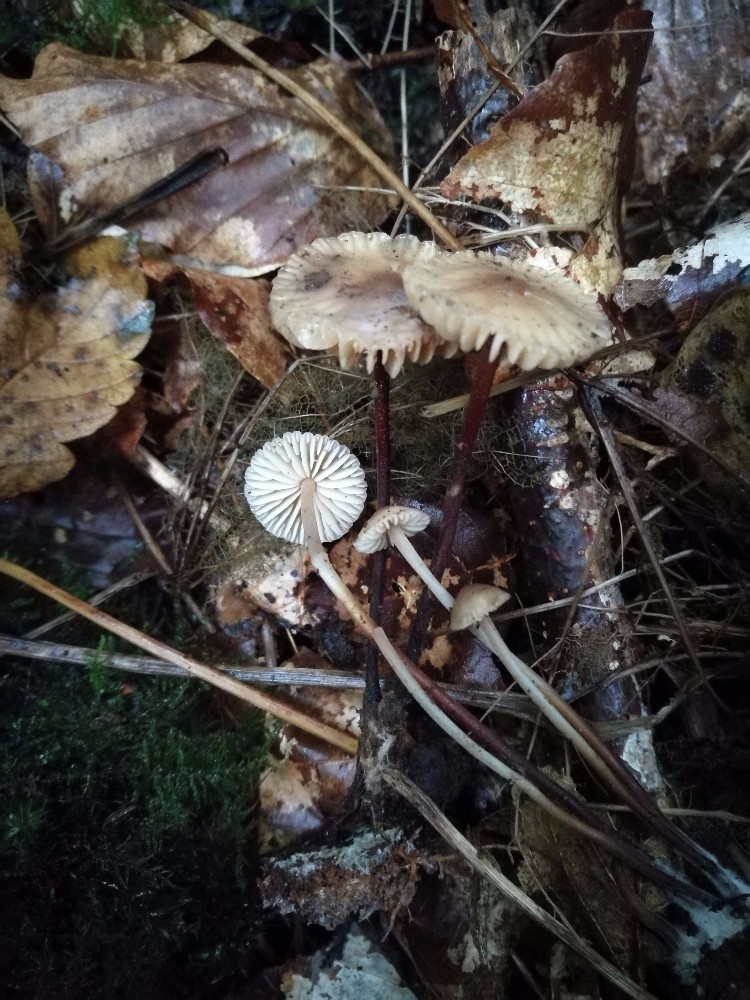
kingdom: Fungi
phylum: Basidiomycota
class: Agaricomycetes
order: Agaricales
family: Marasmiaceae
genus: Marasmius
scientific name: Marasmius torquescens
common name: filtfodet bruskhat
